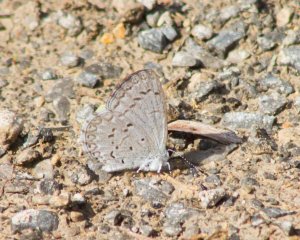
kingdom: Animalia
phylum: Arthropoda
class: Insecta
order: Lepidoptera
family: Lycaenidae
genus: Celastrina
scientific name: Celastrina
